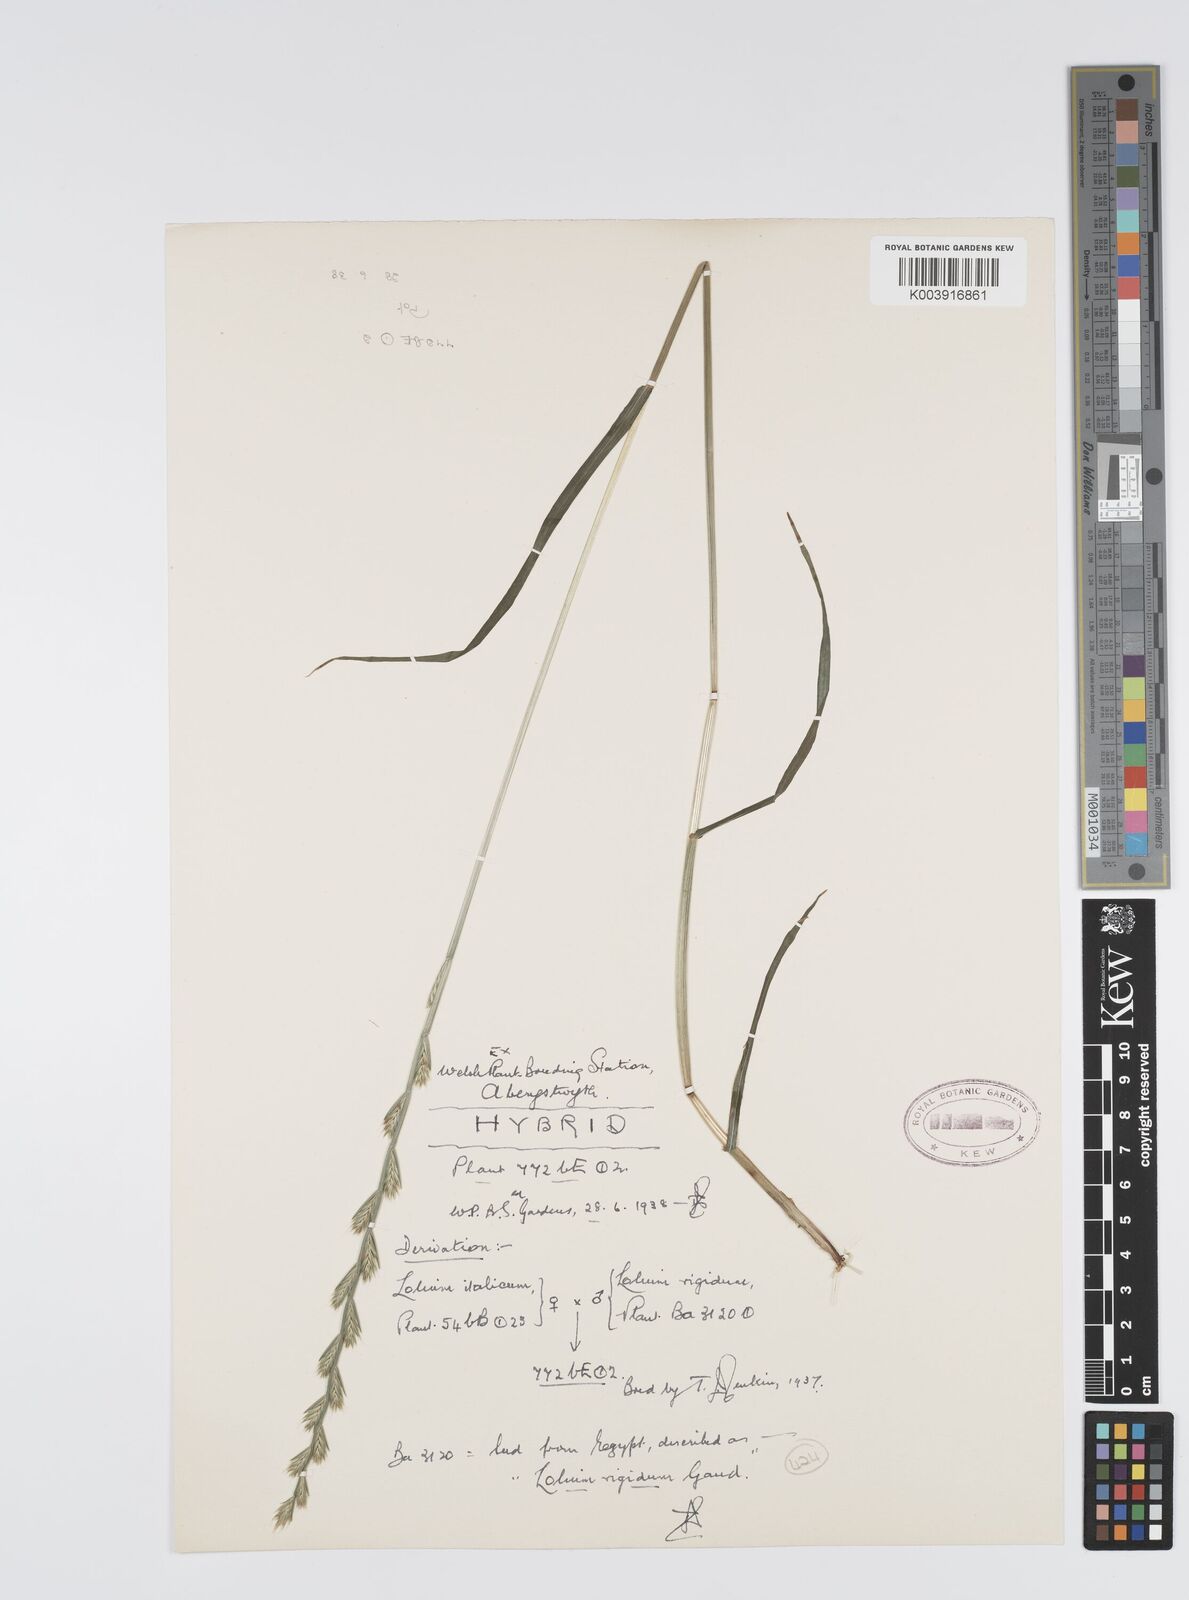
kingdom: Plantae
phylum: Tracheophyta
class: Liliopsida
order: Poales
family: Poaceae
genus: Lolium
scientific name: Lolium multiflorum
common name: Annual ryegrass
